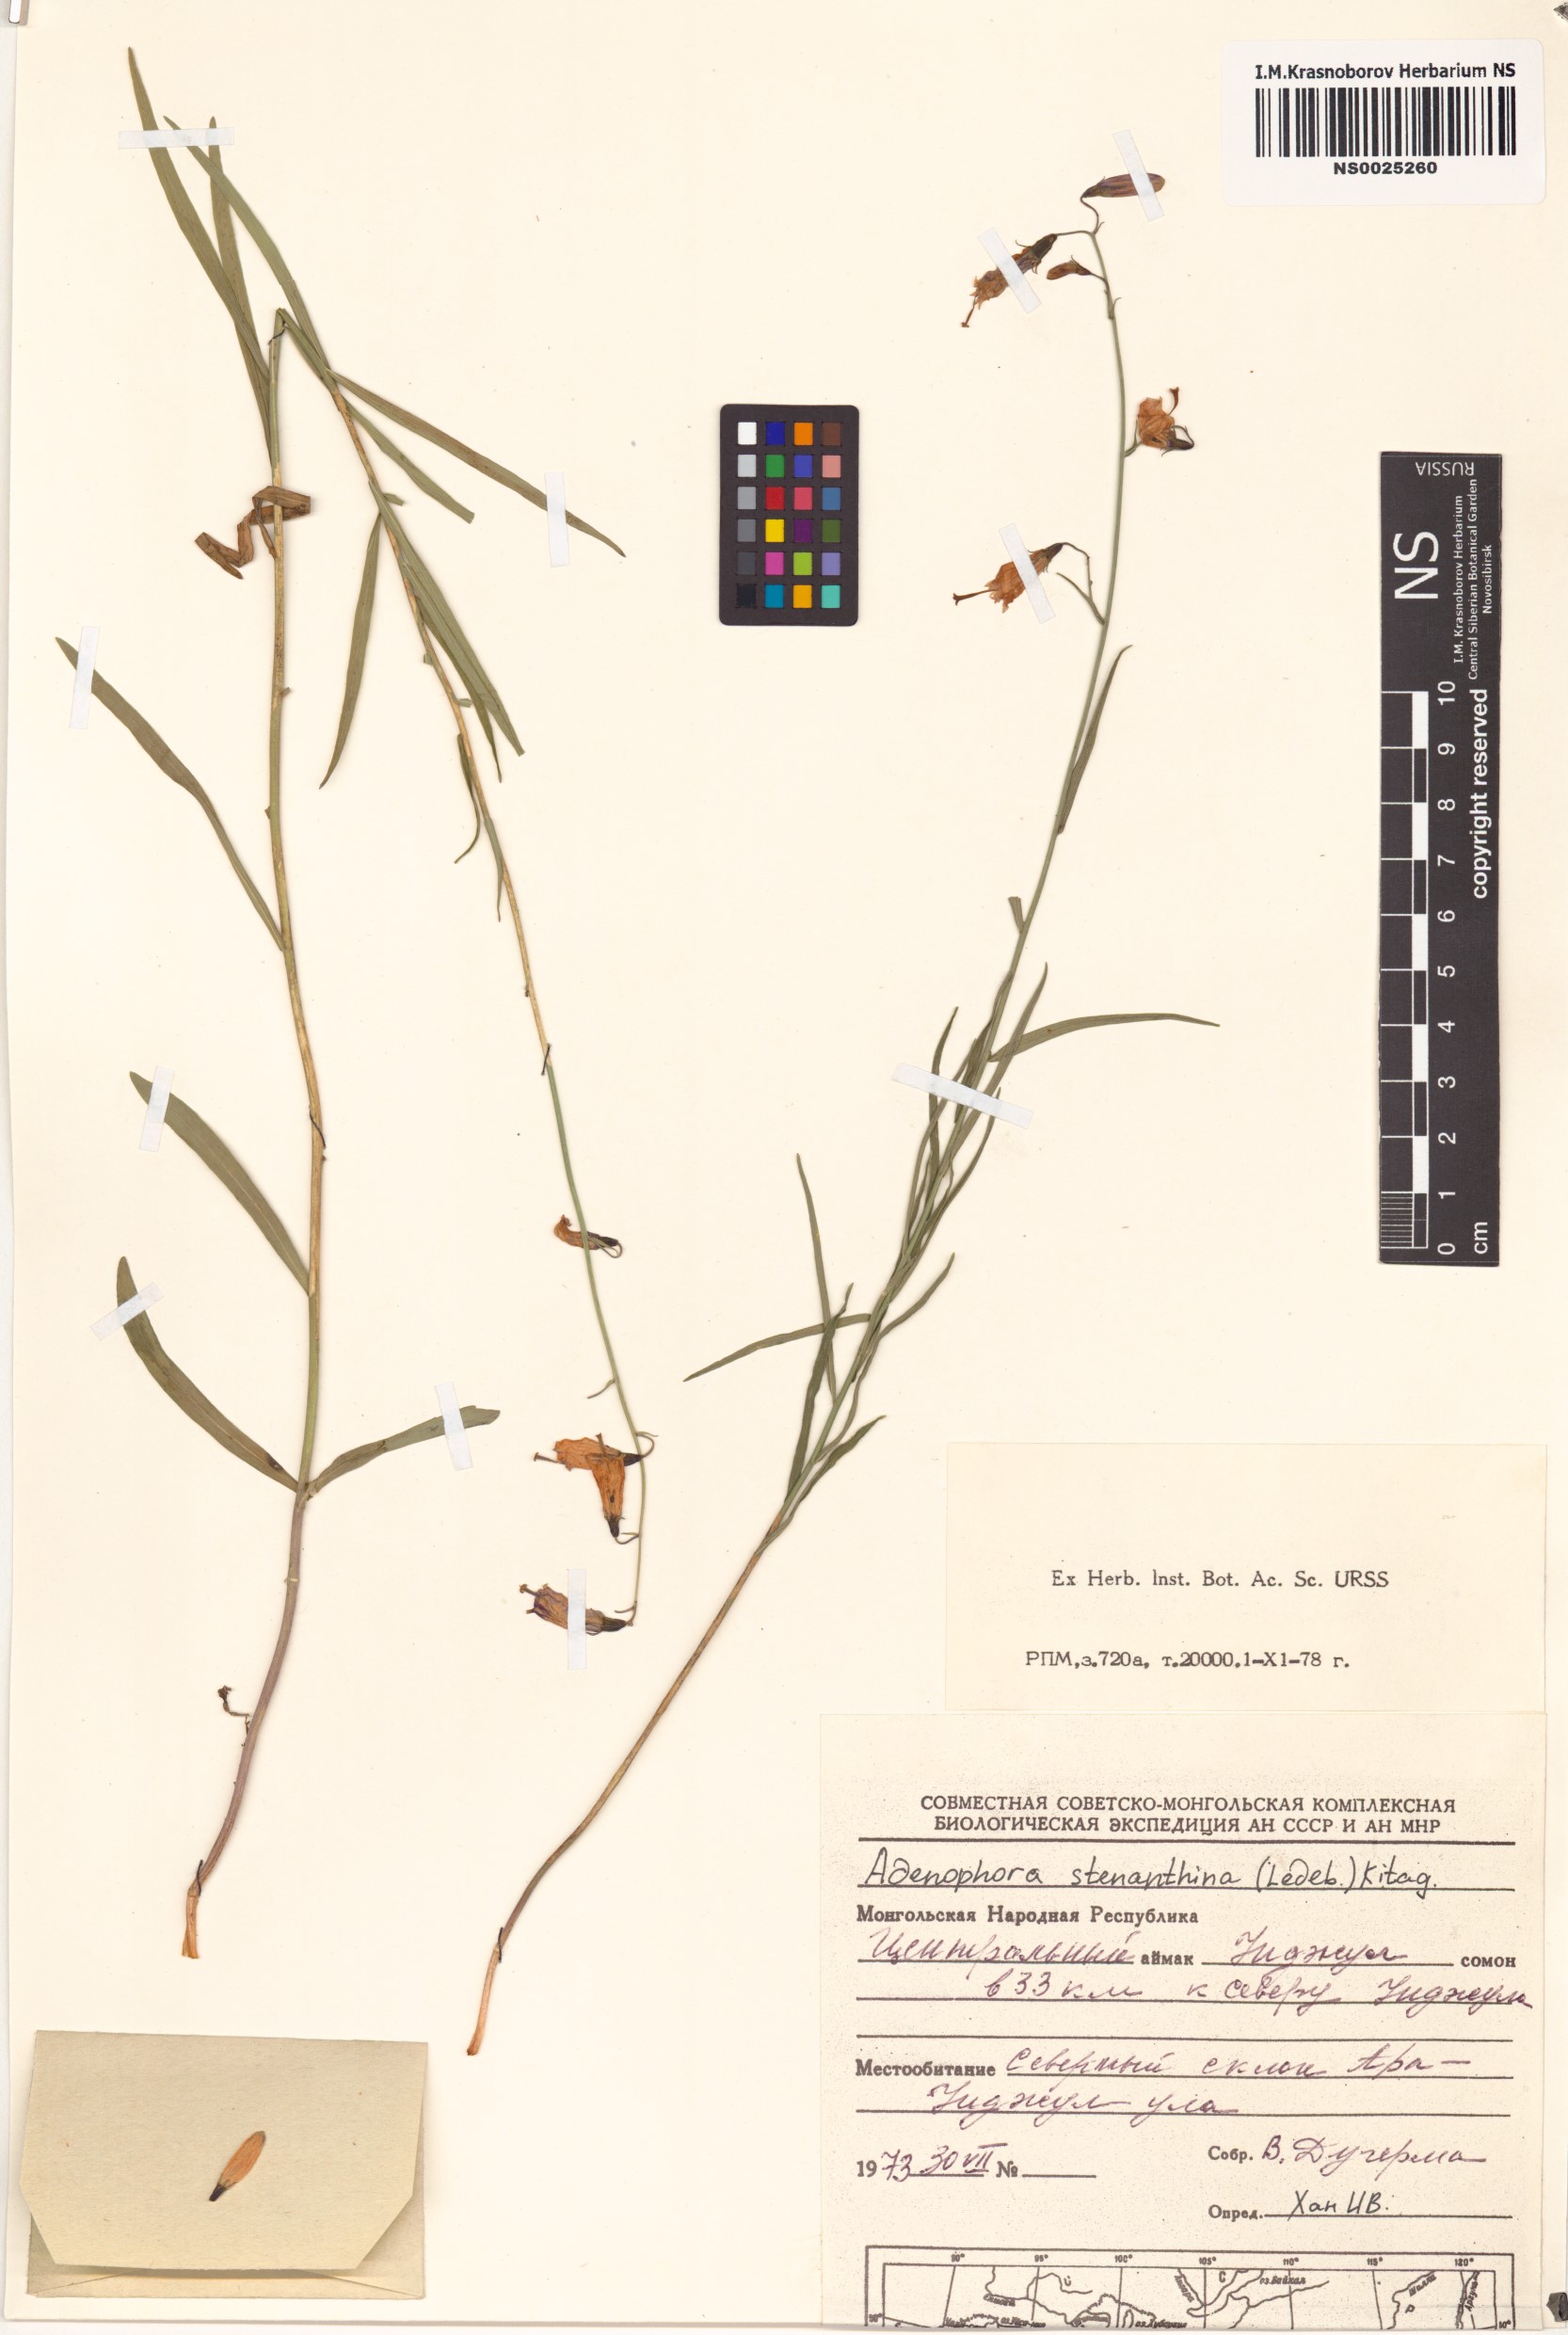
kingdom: Plantae
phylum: Tracheophyta
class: Magnoliopsida
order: Asterales
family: Campanulaceae
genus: Adenophora
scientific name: Adenophora stenanthina
